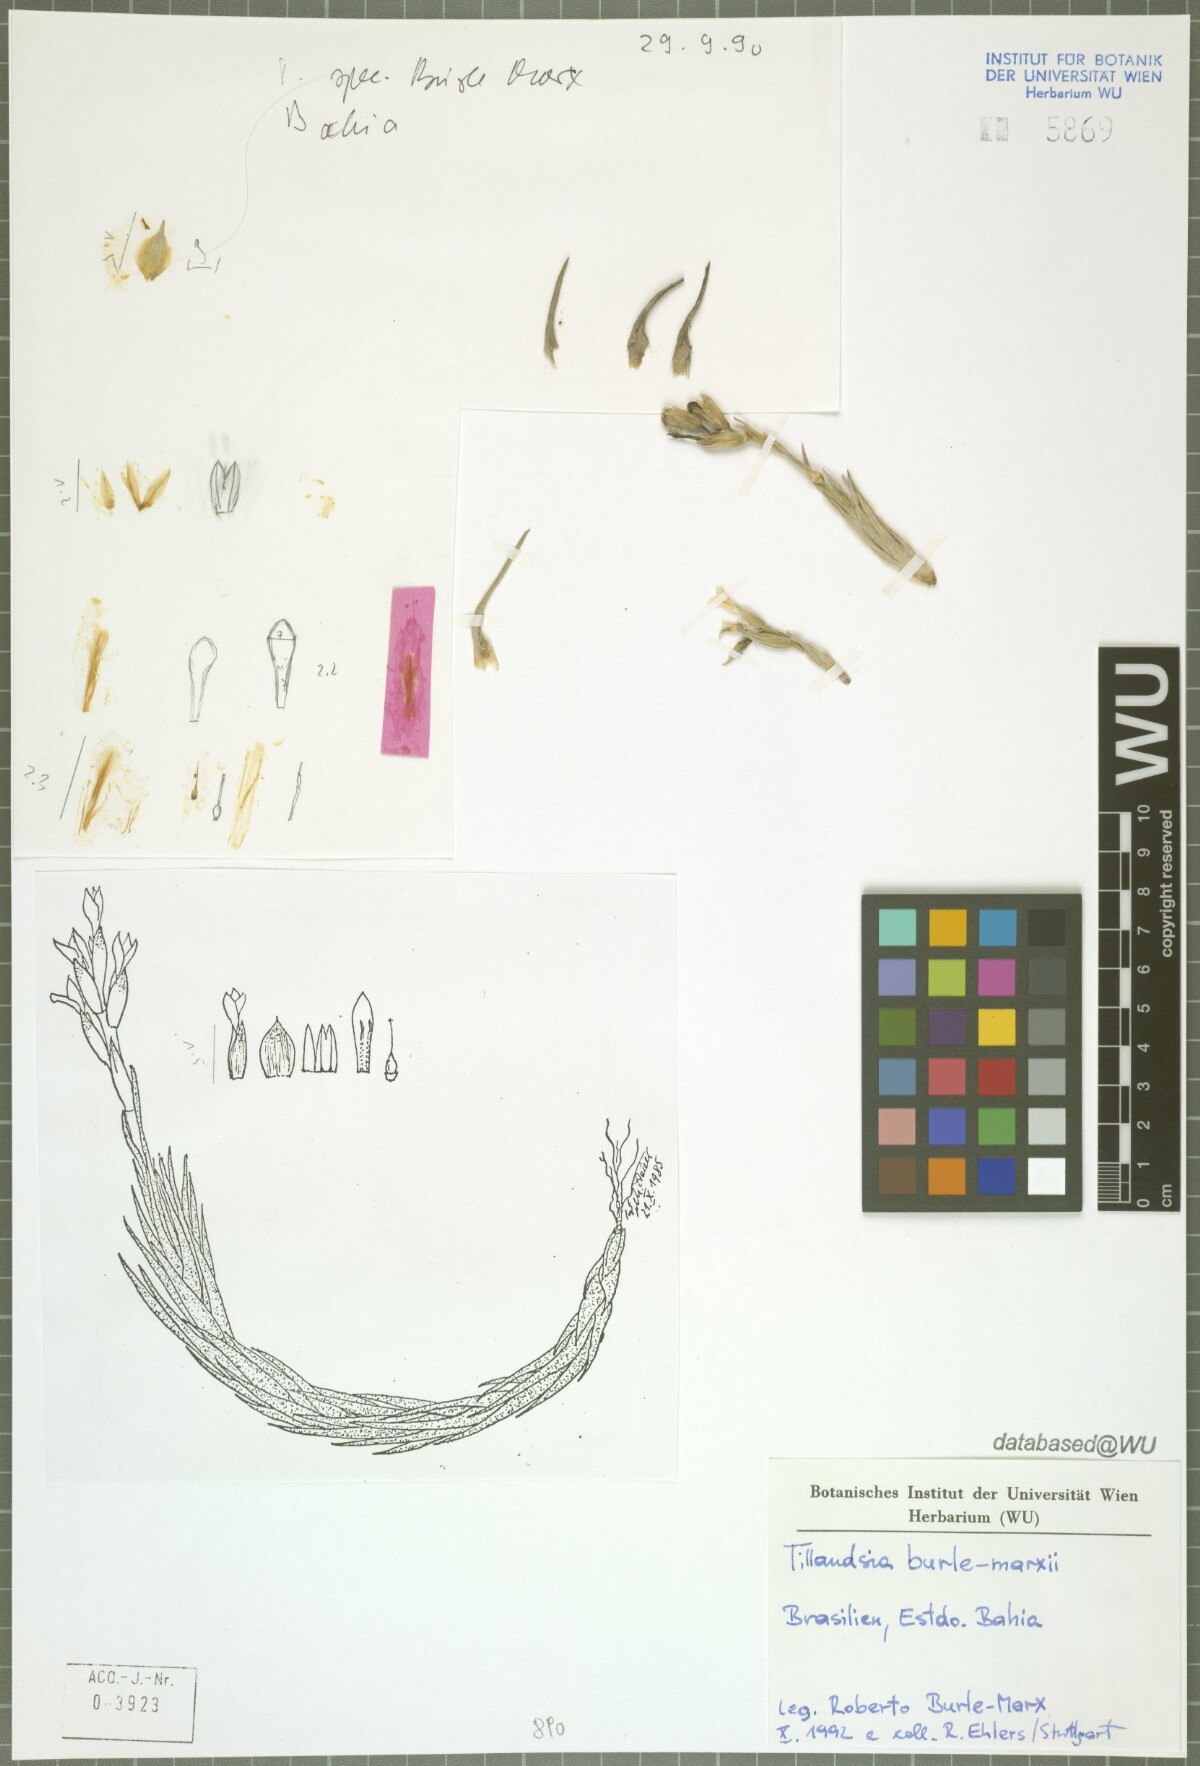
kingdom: Plantae
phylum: Tracheophyta
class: Liliopsida
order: Poales
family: Bromeliaceae
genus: Tillandsia
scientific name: Tillandsia burle-marxii
